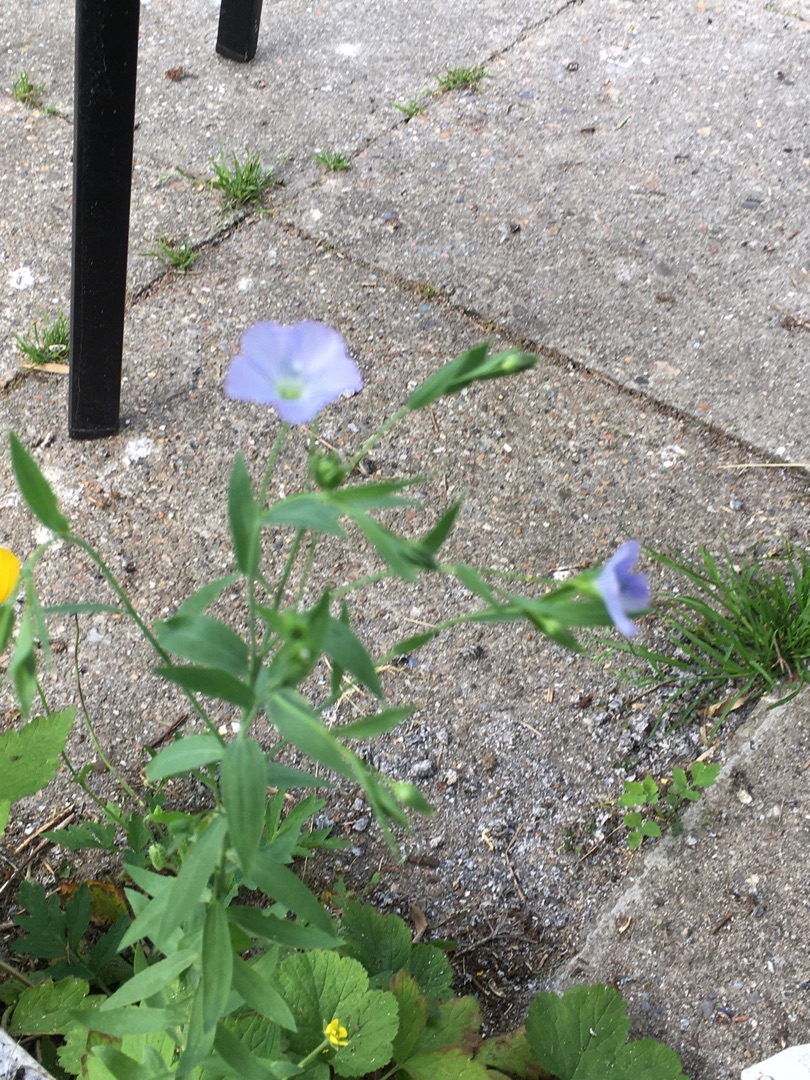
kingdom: Plantae
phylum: Tracheophyta
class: Magnoliopsida
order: Malpighiales
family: Linaceae
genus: Linum
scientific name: Linum usitatissimum
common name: Almindelig hør
